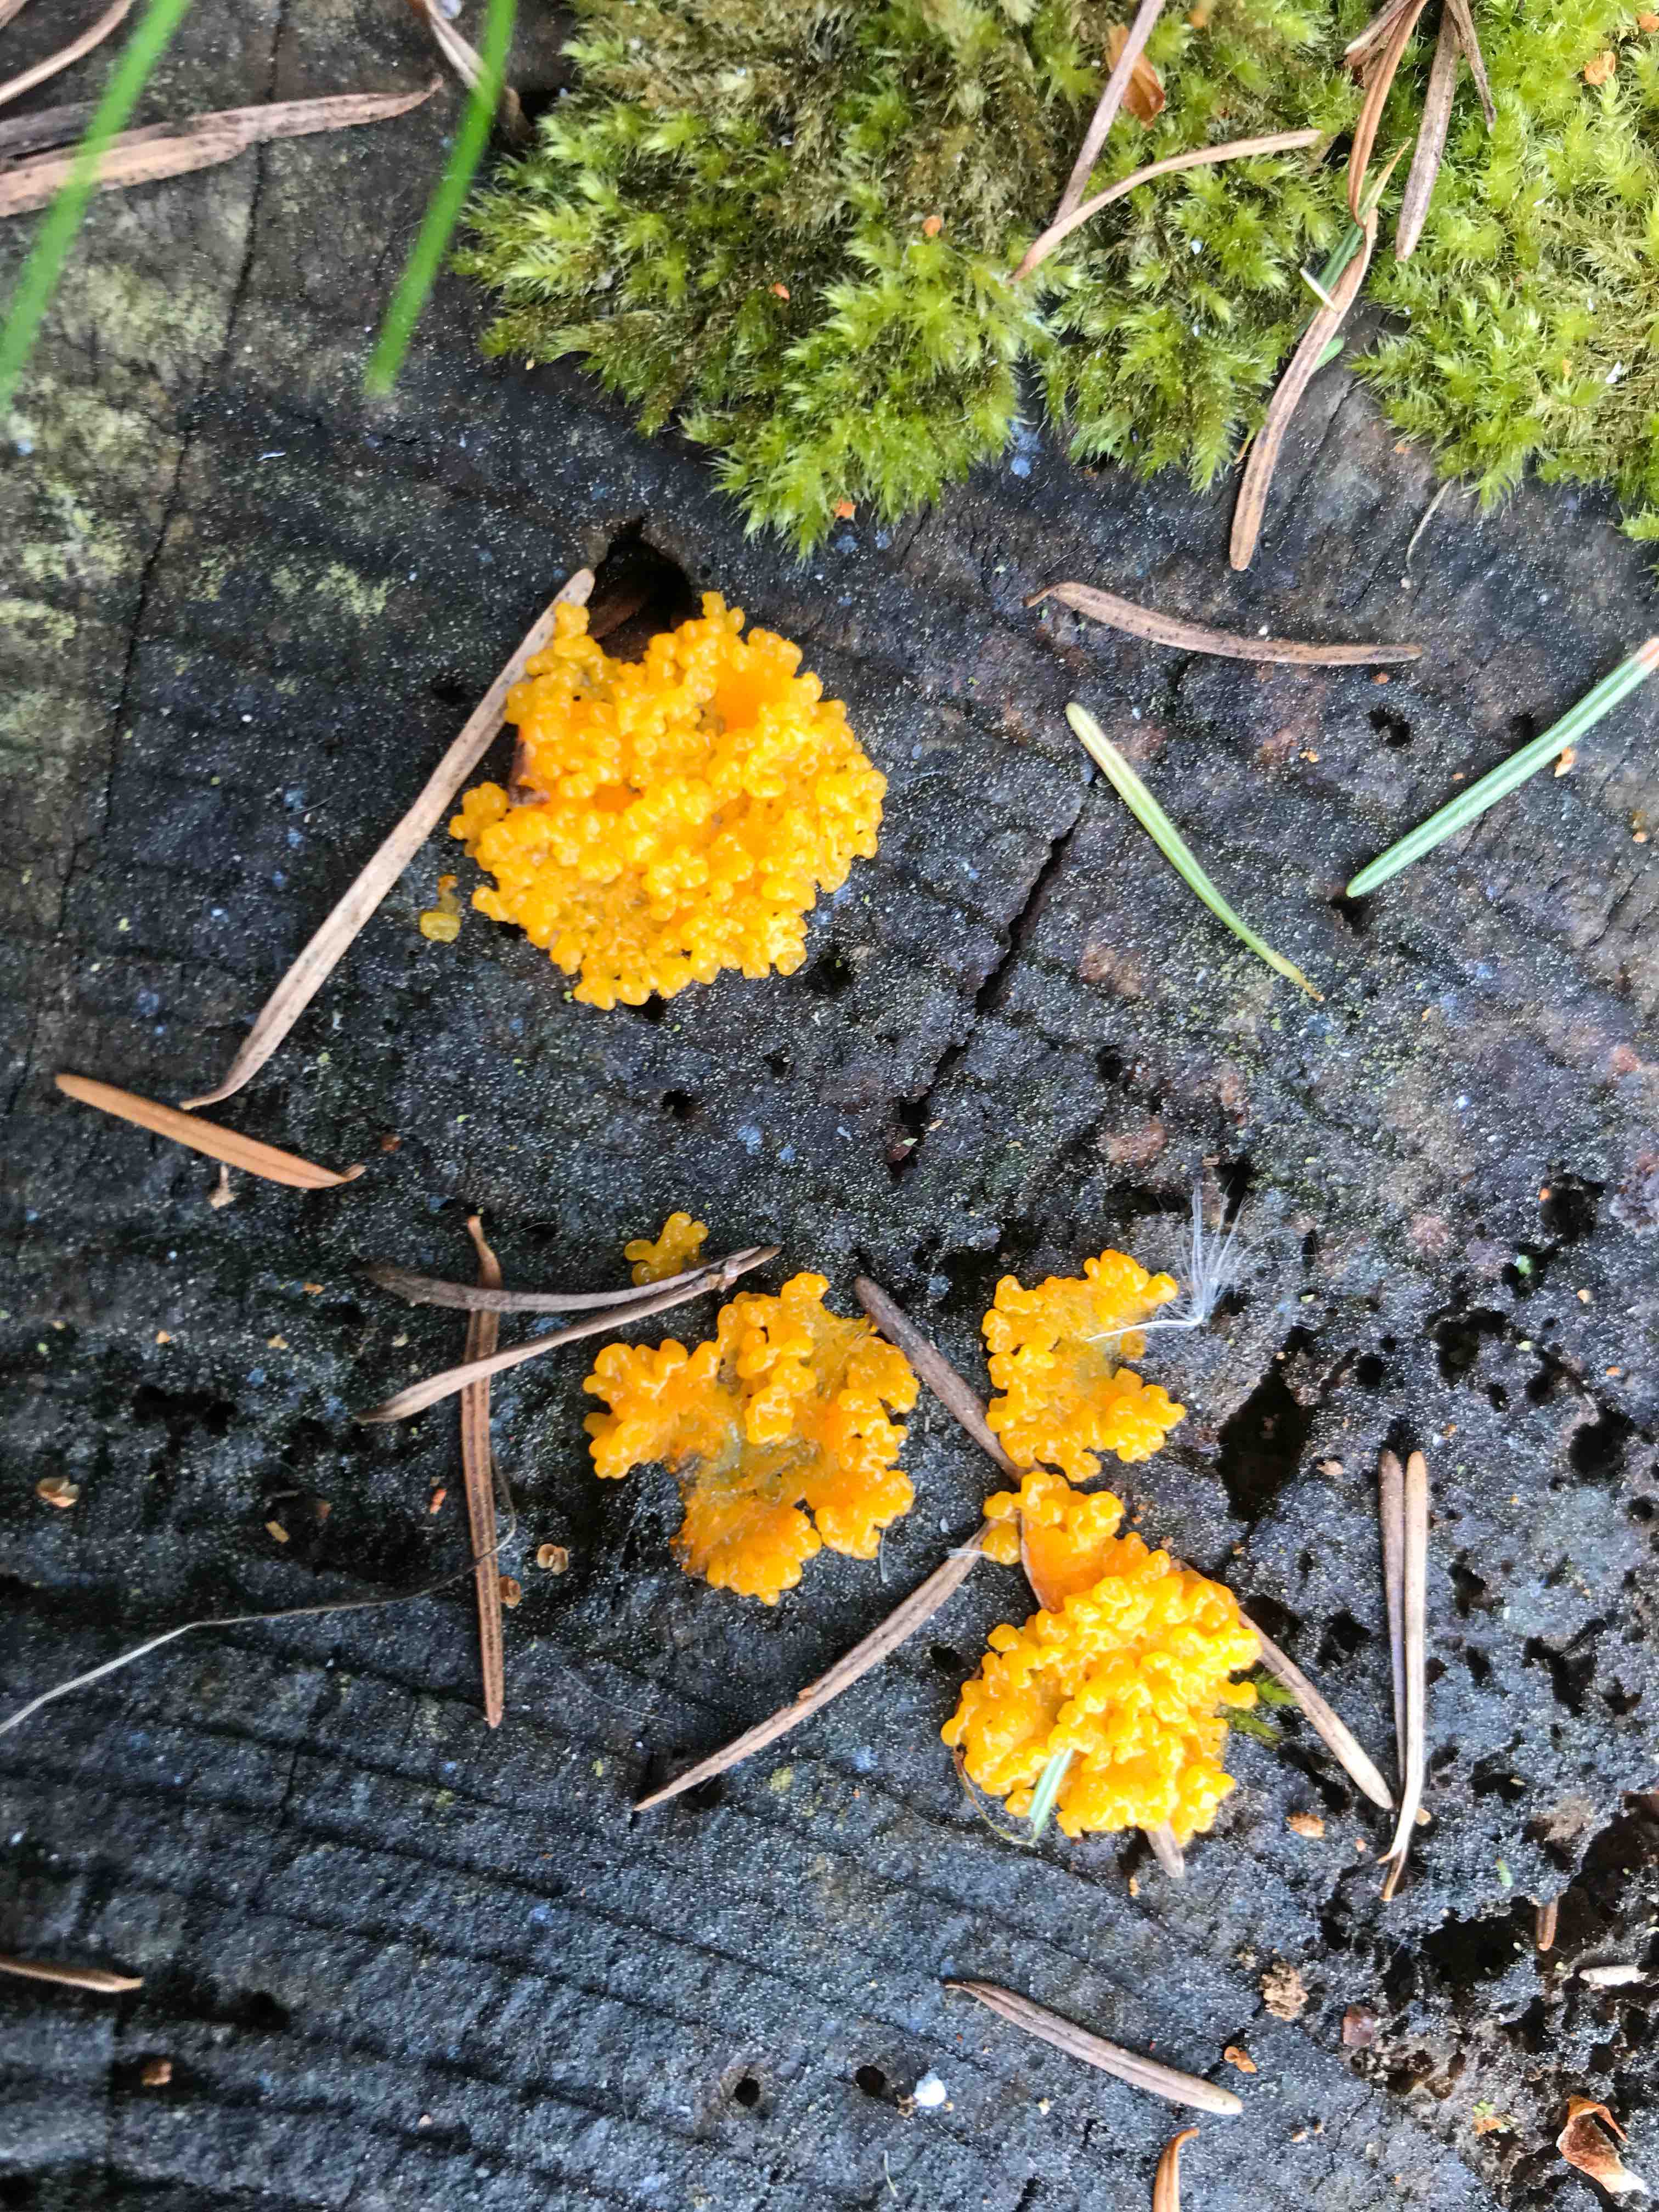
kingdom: Protozoa
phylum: Mycetozoa
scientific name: Mycetozoa
